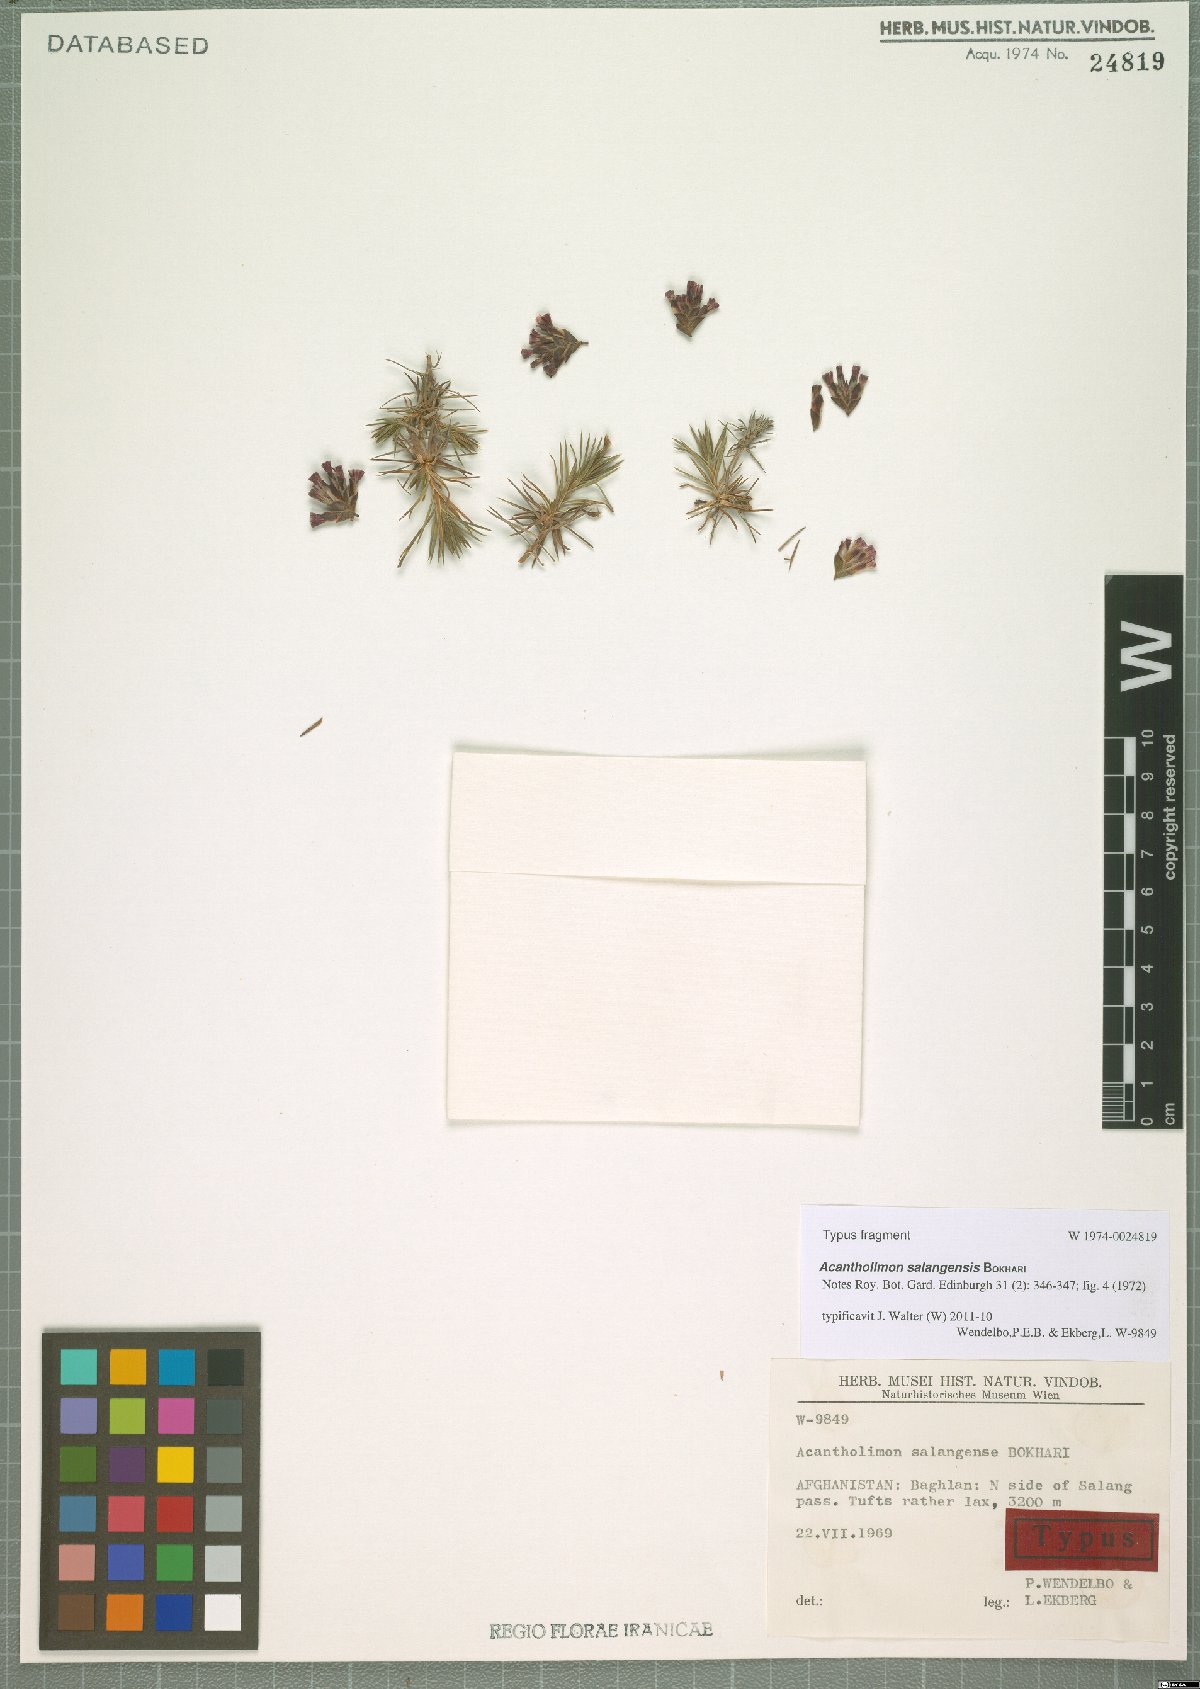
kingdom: Plantae
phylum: Tracheophyta
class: Magnoliopsida
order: Caryophyllales
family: Plumbaginaceae
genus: Acantholimon
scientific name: Acantholimon salangensis
